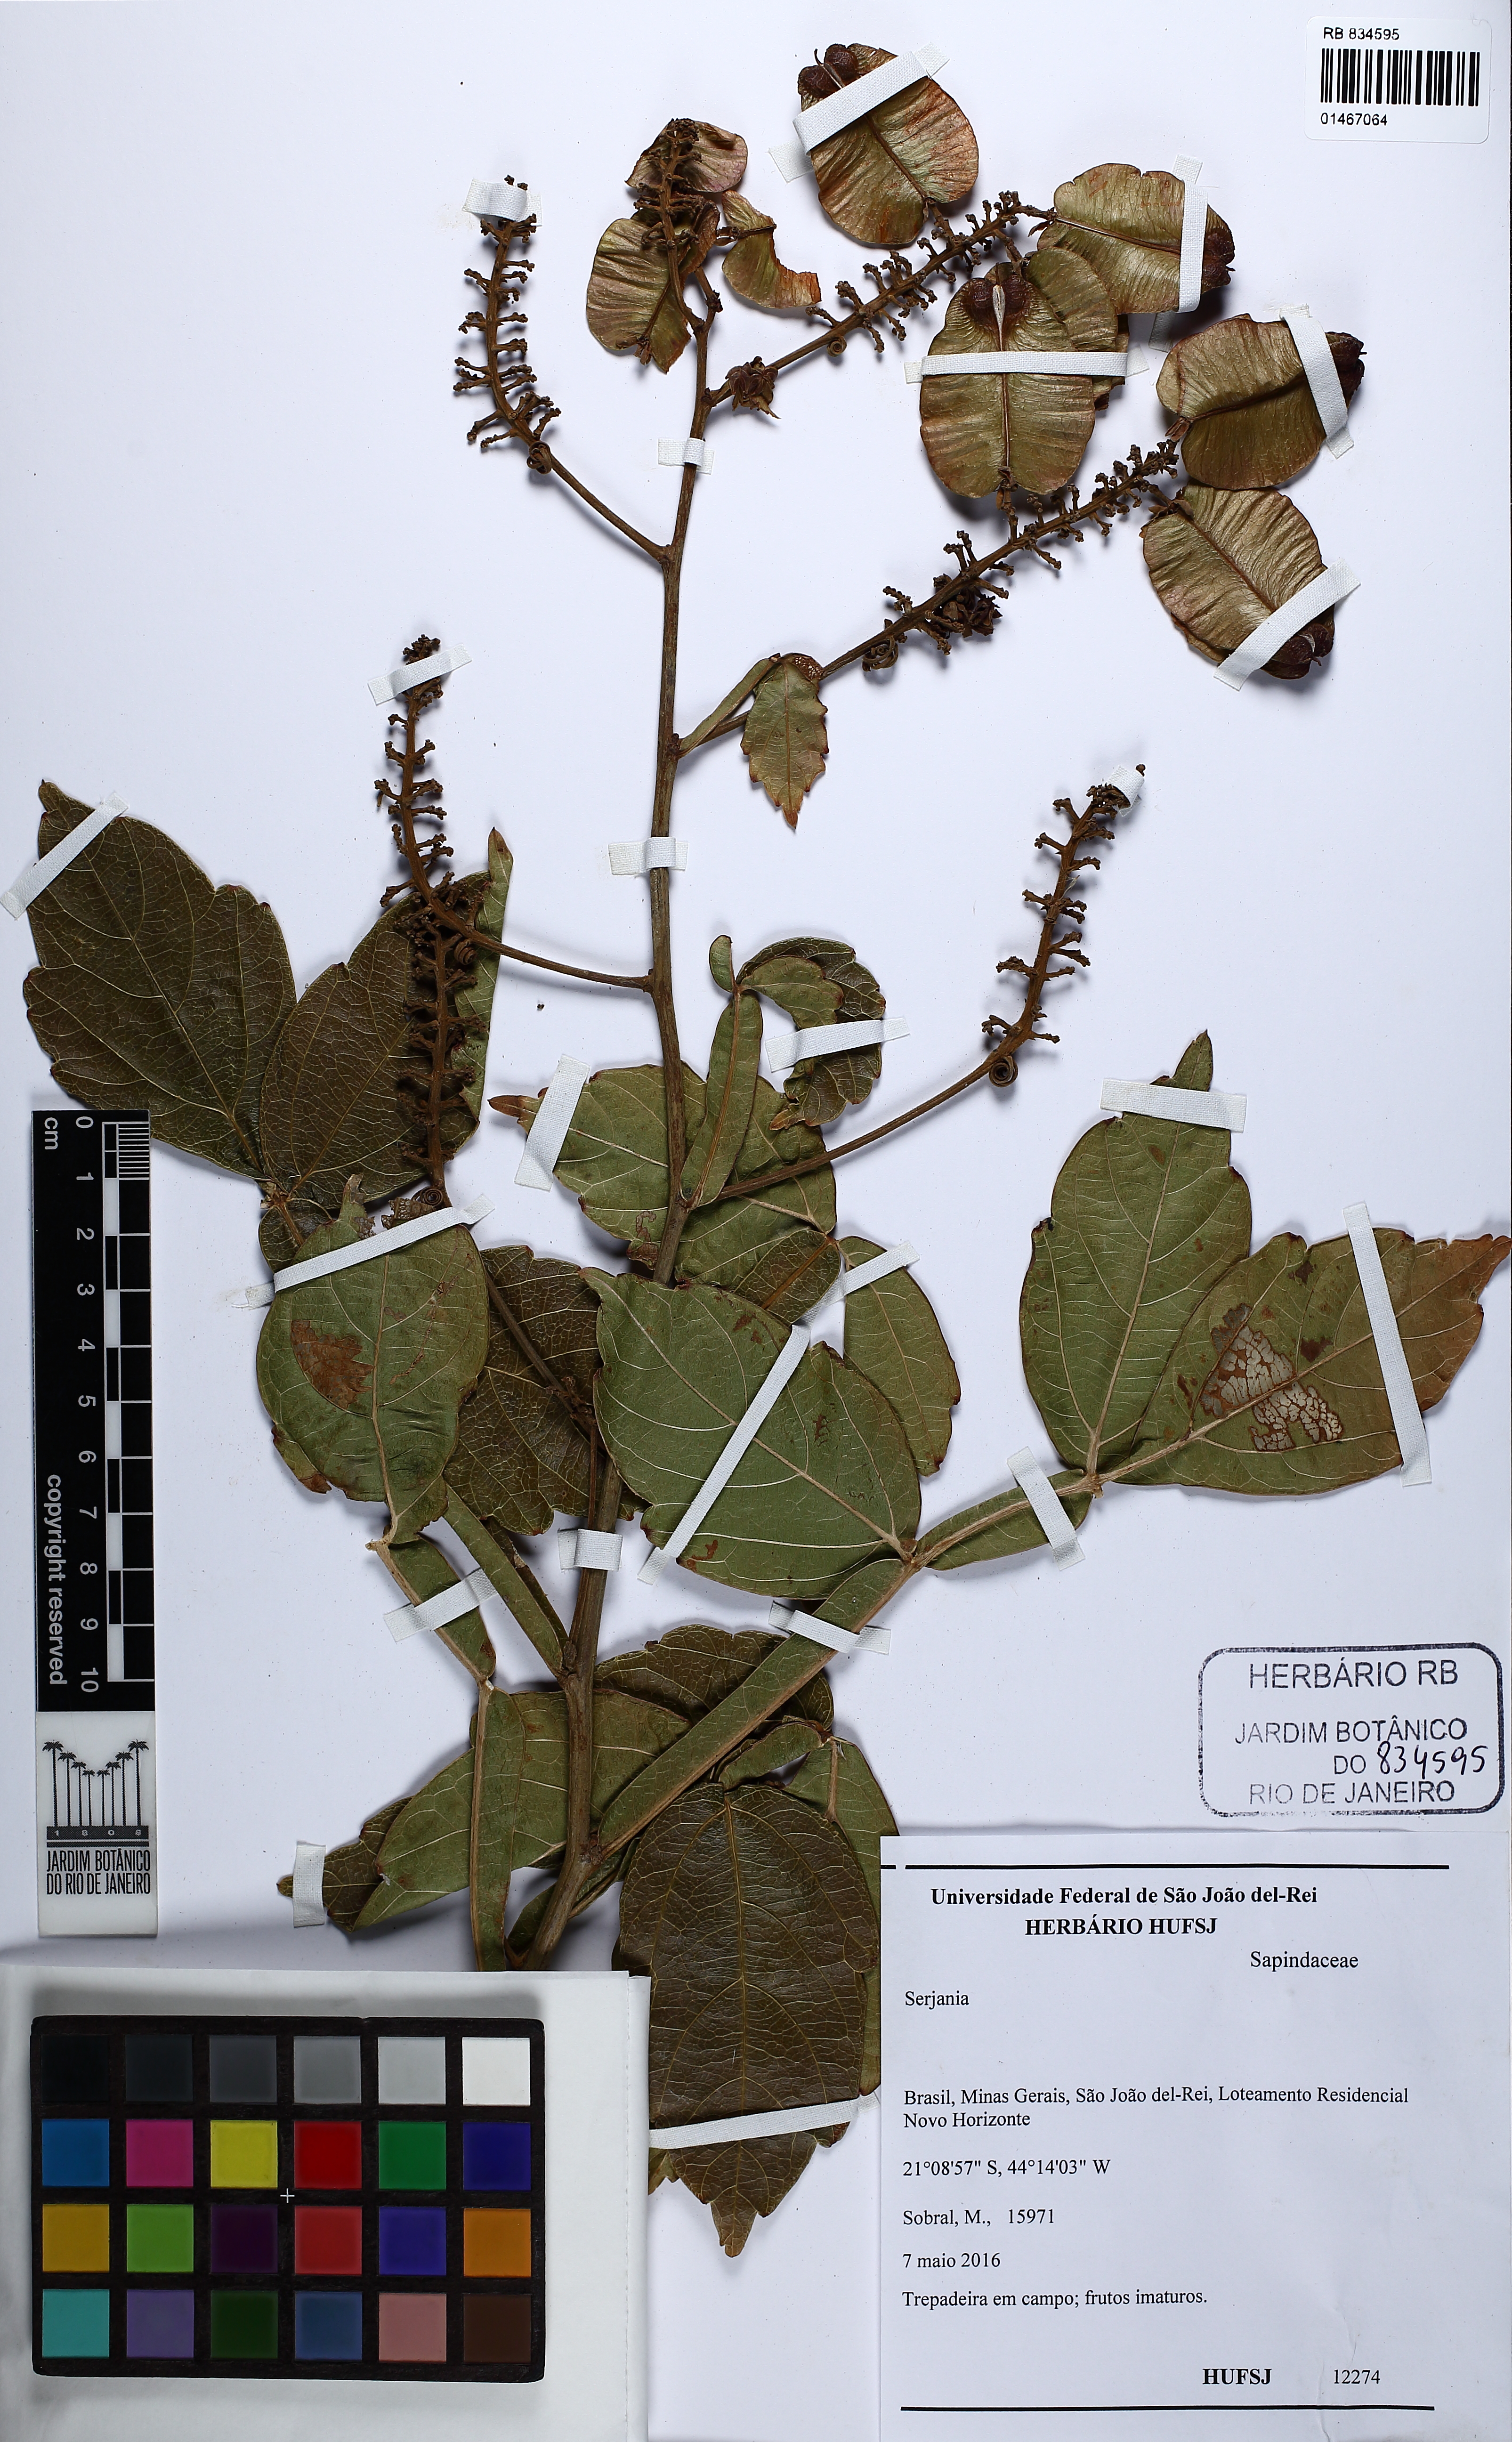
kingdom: Plantae
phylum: Tracheophyta
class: Magnoliopsida
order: Sapindales
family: Sapindaceae
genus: Serjania
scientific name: Serjania
